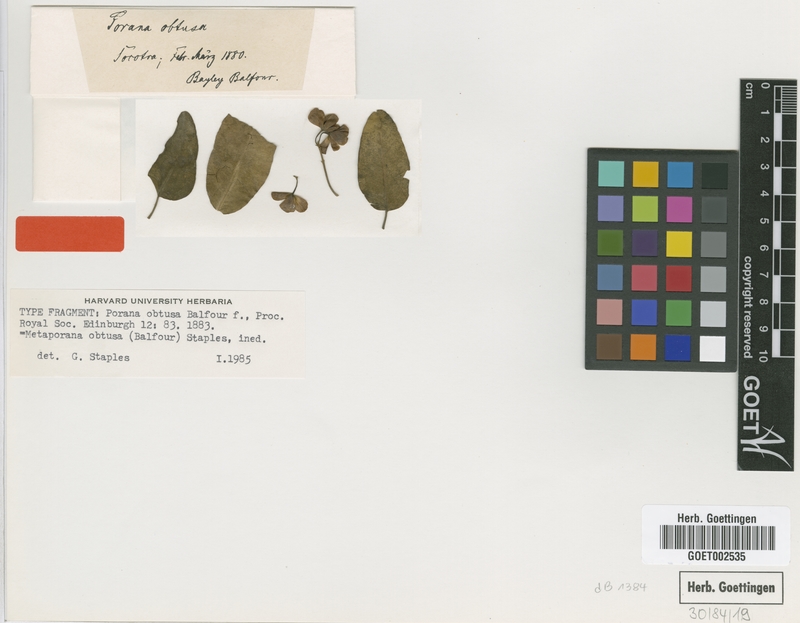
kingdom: Plantae
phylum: Tracheophyta
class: Magnoliopsida
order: Solanales
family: Convolvulaceae
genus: Metaporana
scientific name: Metaporana obtusa
